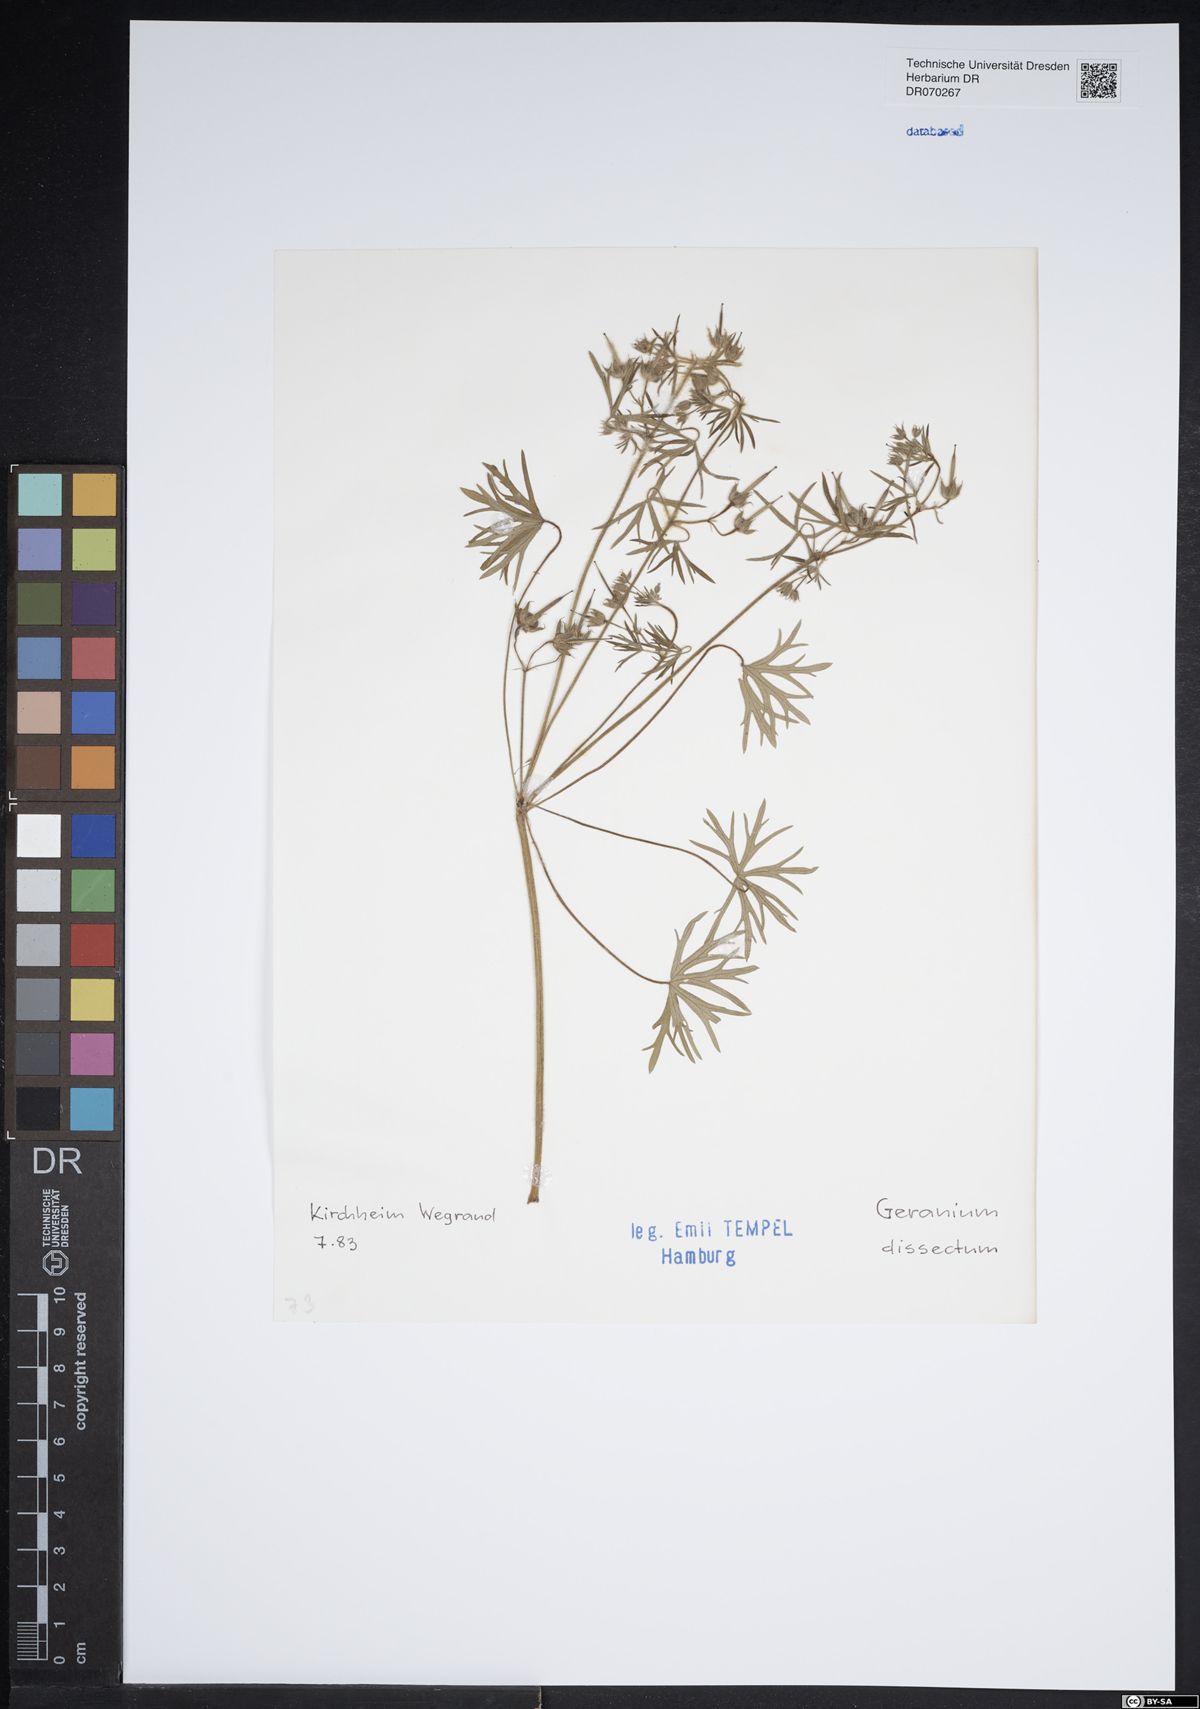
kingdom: Plantae
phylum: Tracheophyta
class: Magnoliopsida
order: Geraniales
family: Geraniaceae
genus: Geranium
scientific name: Geranium dissectum
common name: Cut-leaved crane's-bill
